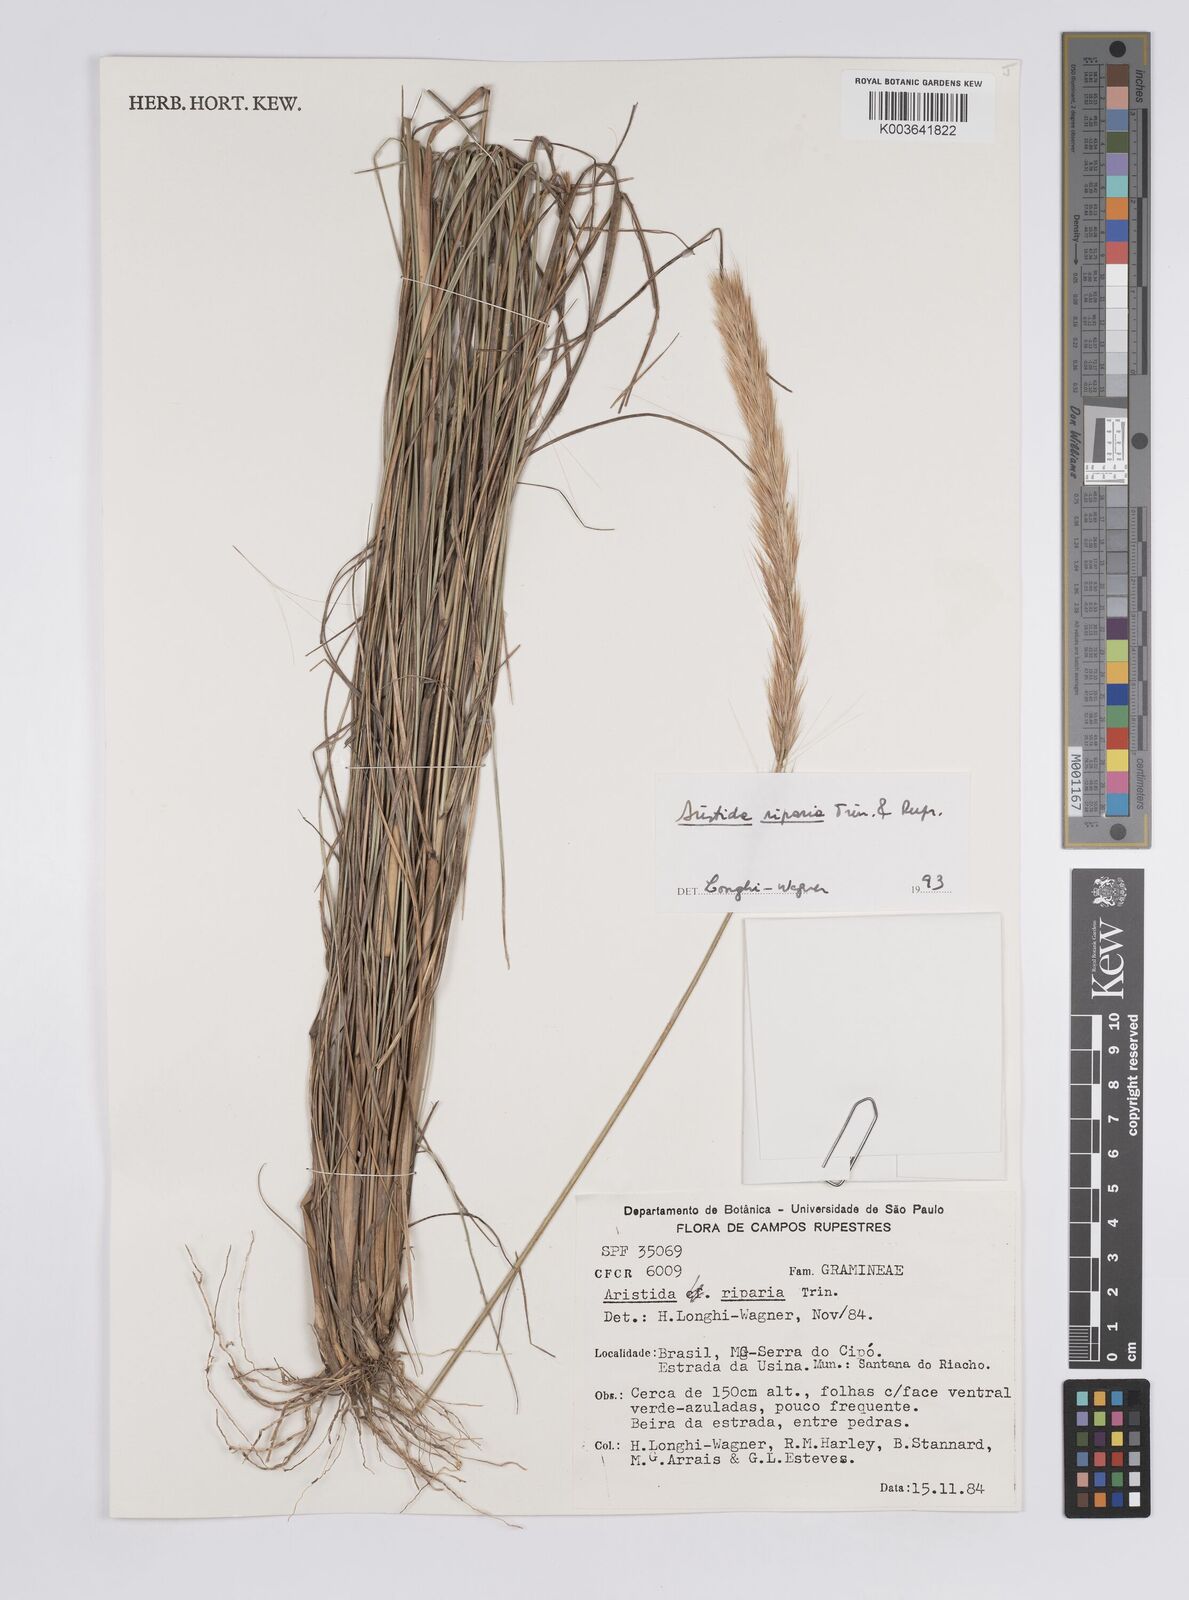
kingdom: Plantae
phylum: Tracheophyta
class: Liliopsida
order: Poales
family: Poaceae
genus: Aristida
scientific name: Aristida riparia
